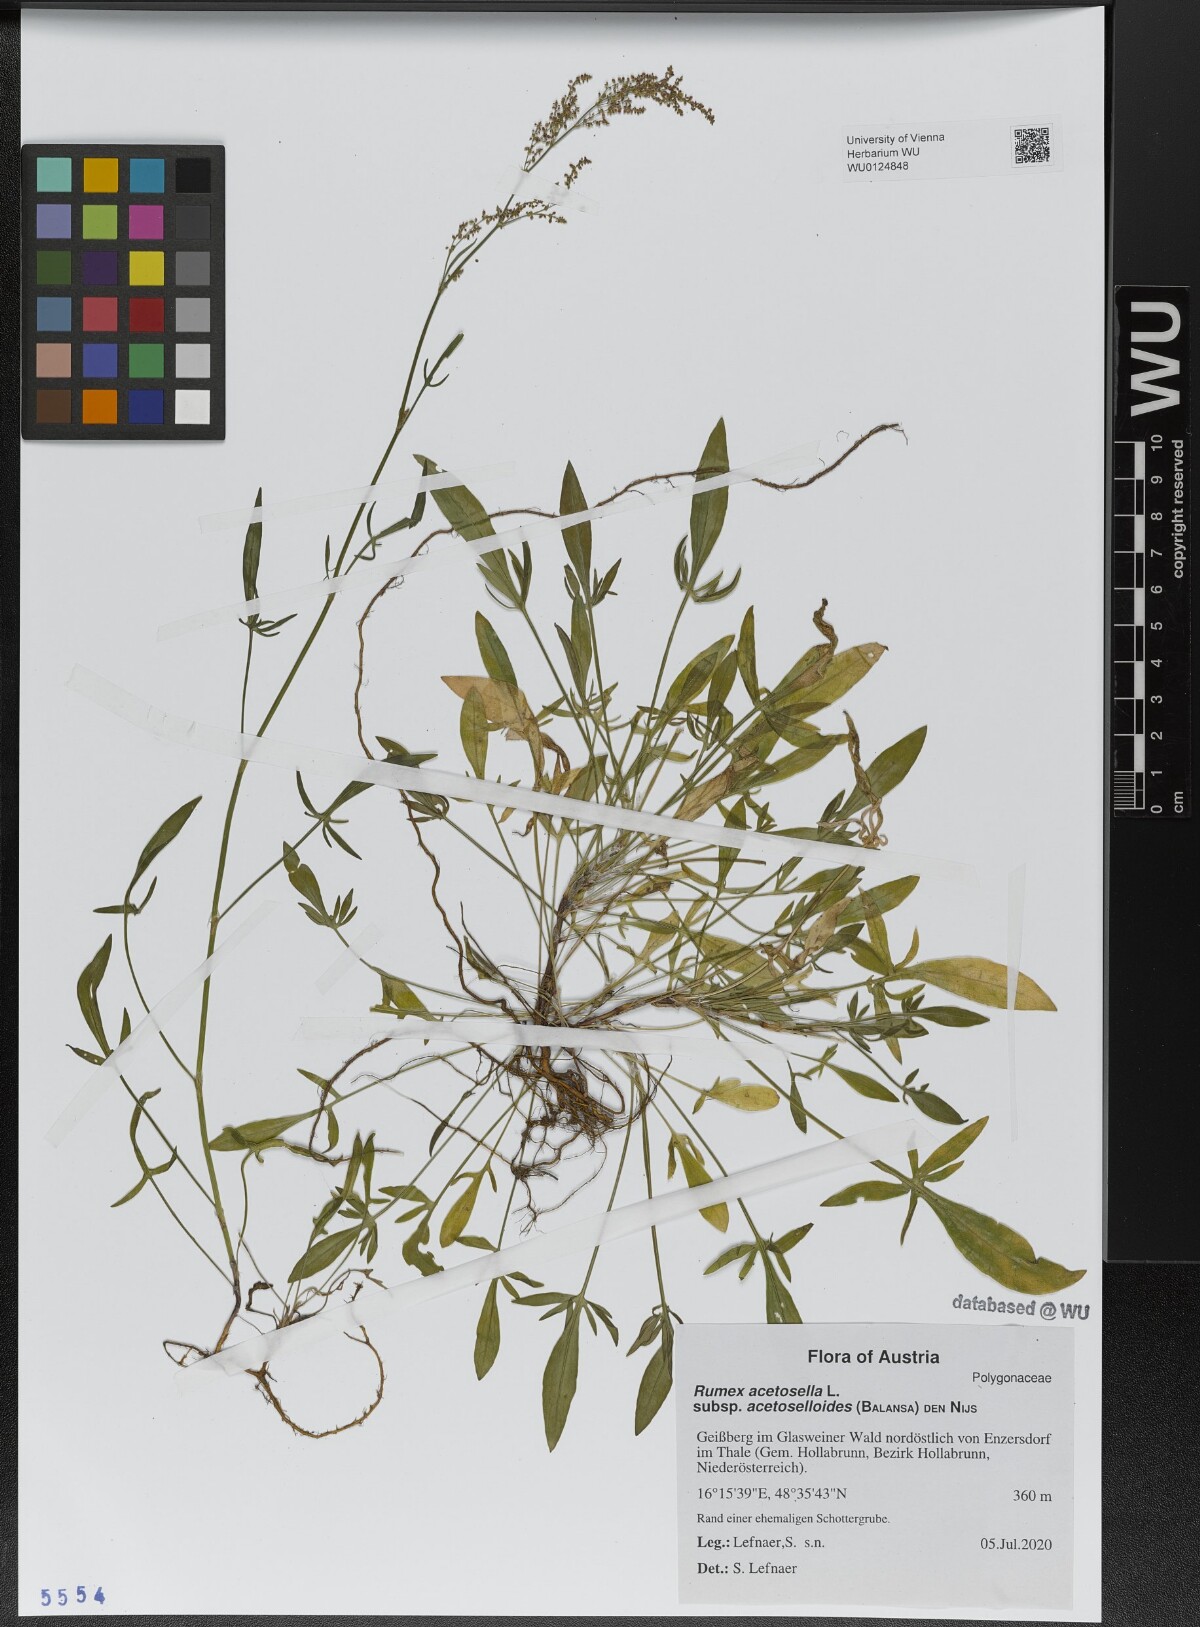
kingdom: Plantae
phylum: Tracheophyta
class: Magnoliopsida
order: Caryophyllales
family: Polygonaceae
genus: Rumex
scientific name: Rumex acetosella
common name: Common sheep sorrel
